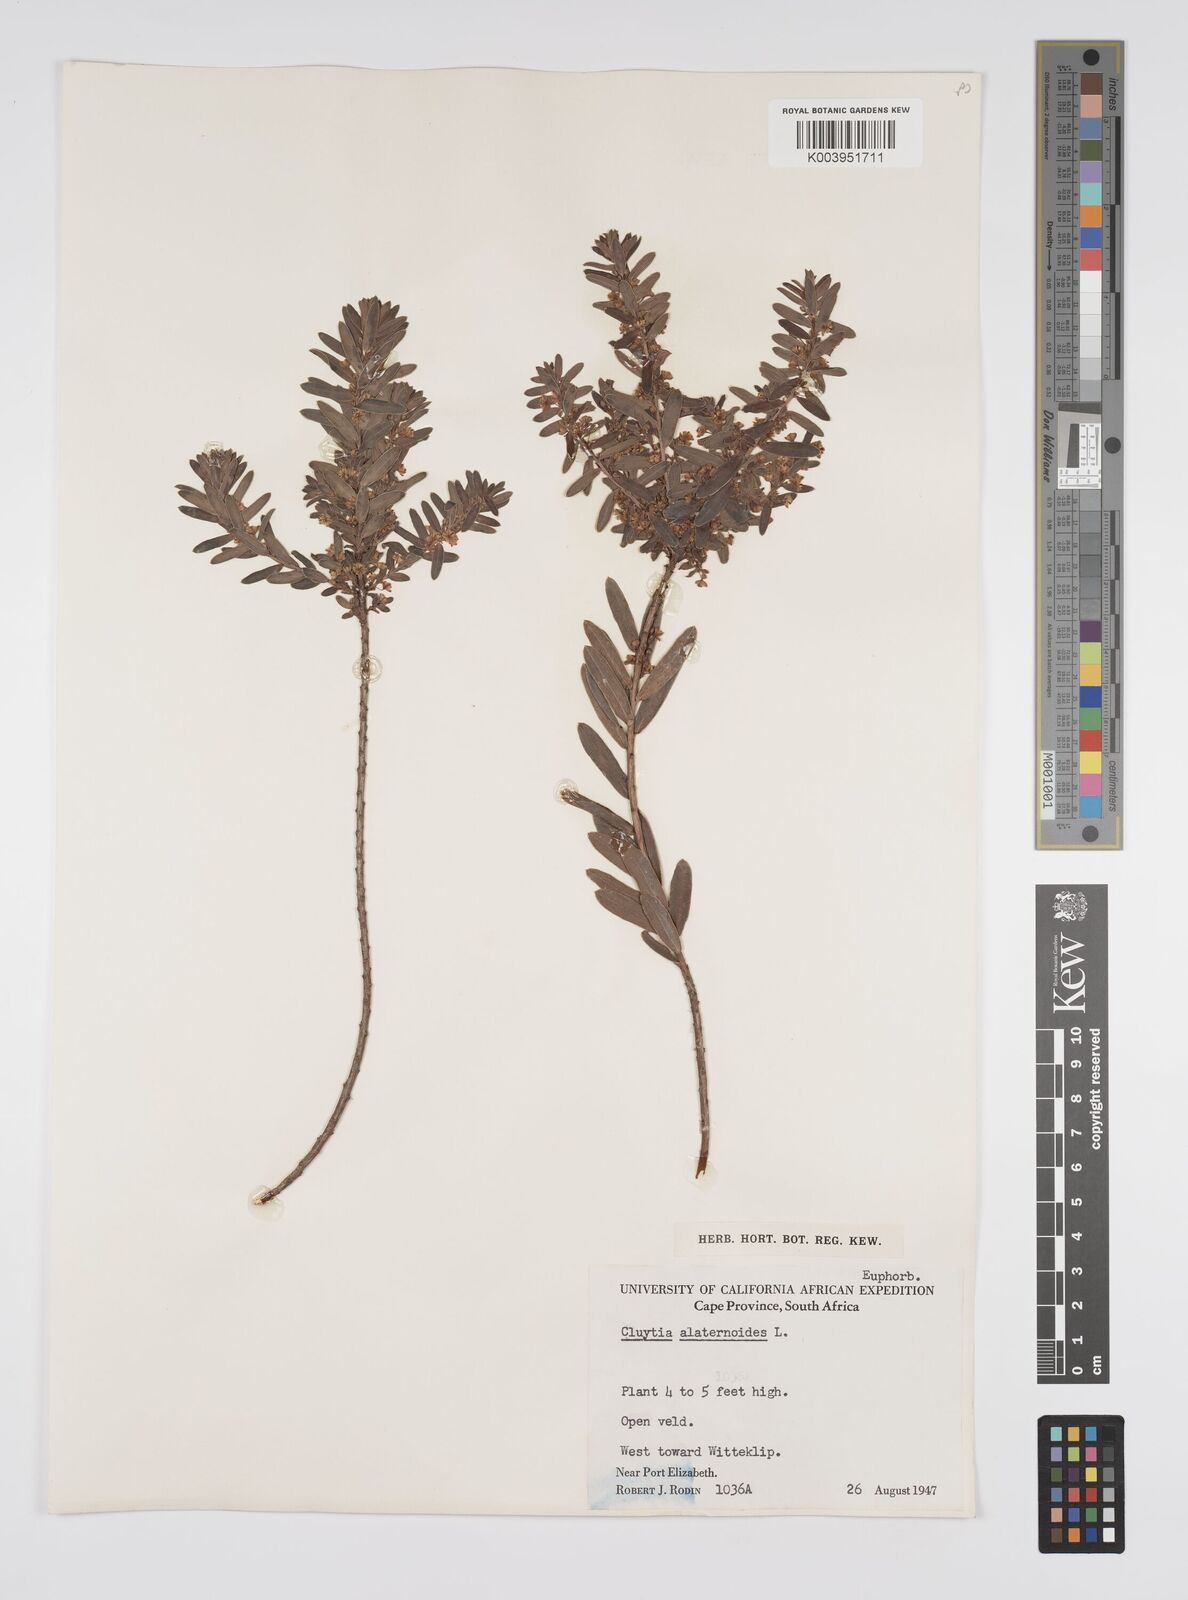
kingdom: Plantae
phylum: Tracheophyta
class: Magnoliopsida
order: Malpighiales
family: Peraceae
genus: Clutia
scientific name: Clutia alaternoides
